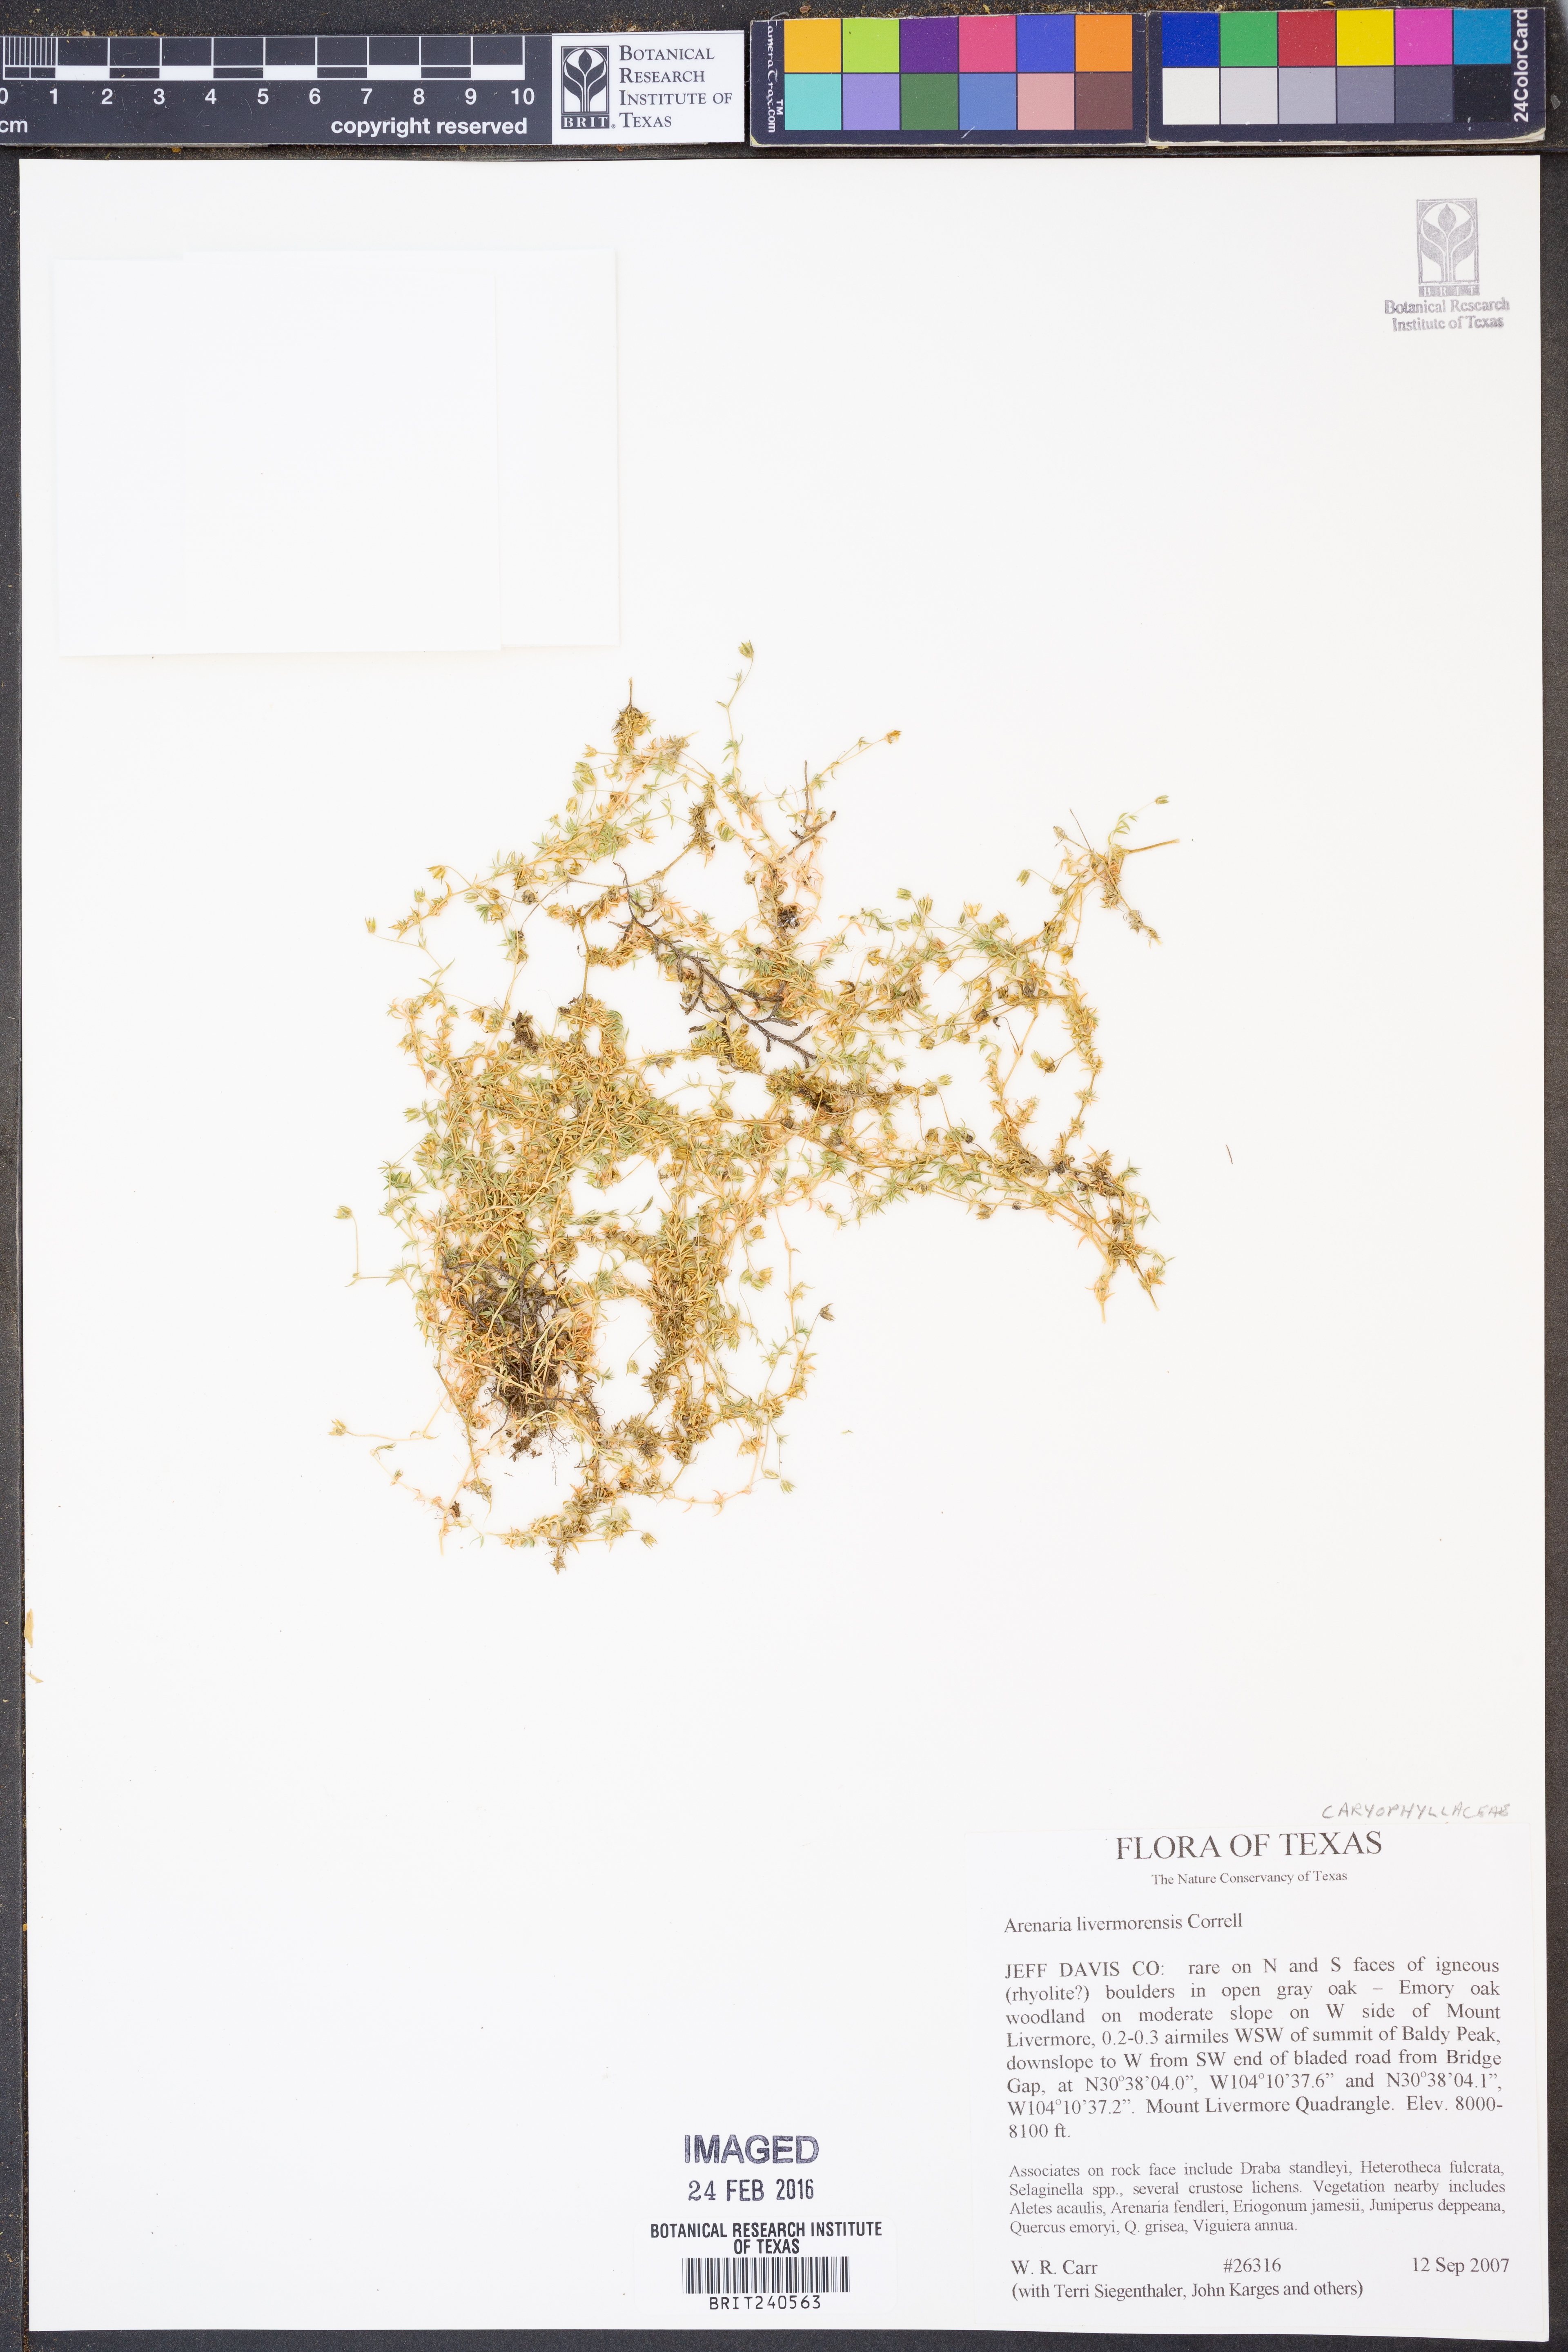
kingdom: Plantae
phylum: Tracheophyta
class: Magnoliopsida
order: Caryophyllales
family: Caryophyllaceae
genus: Arenaria
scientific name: Arenaria livermorensis
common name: Livermore sandwort
